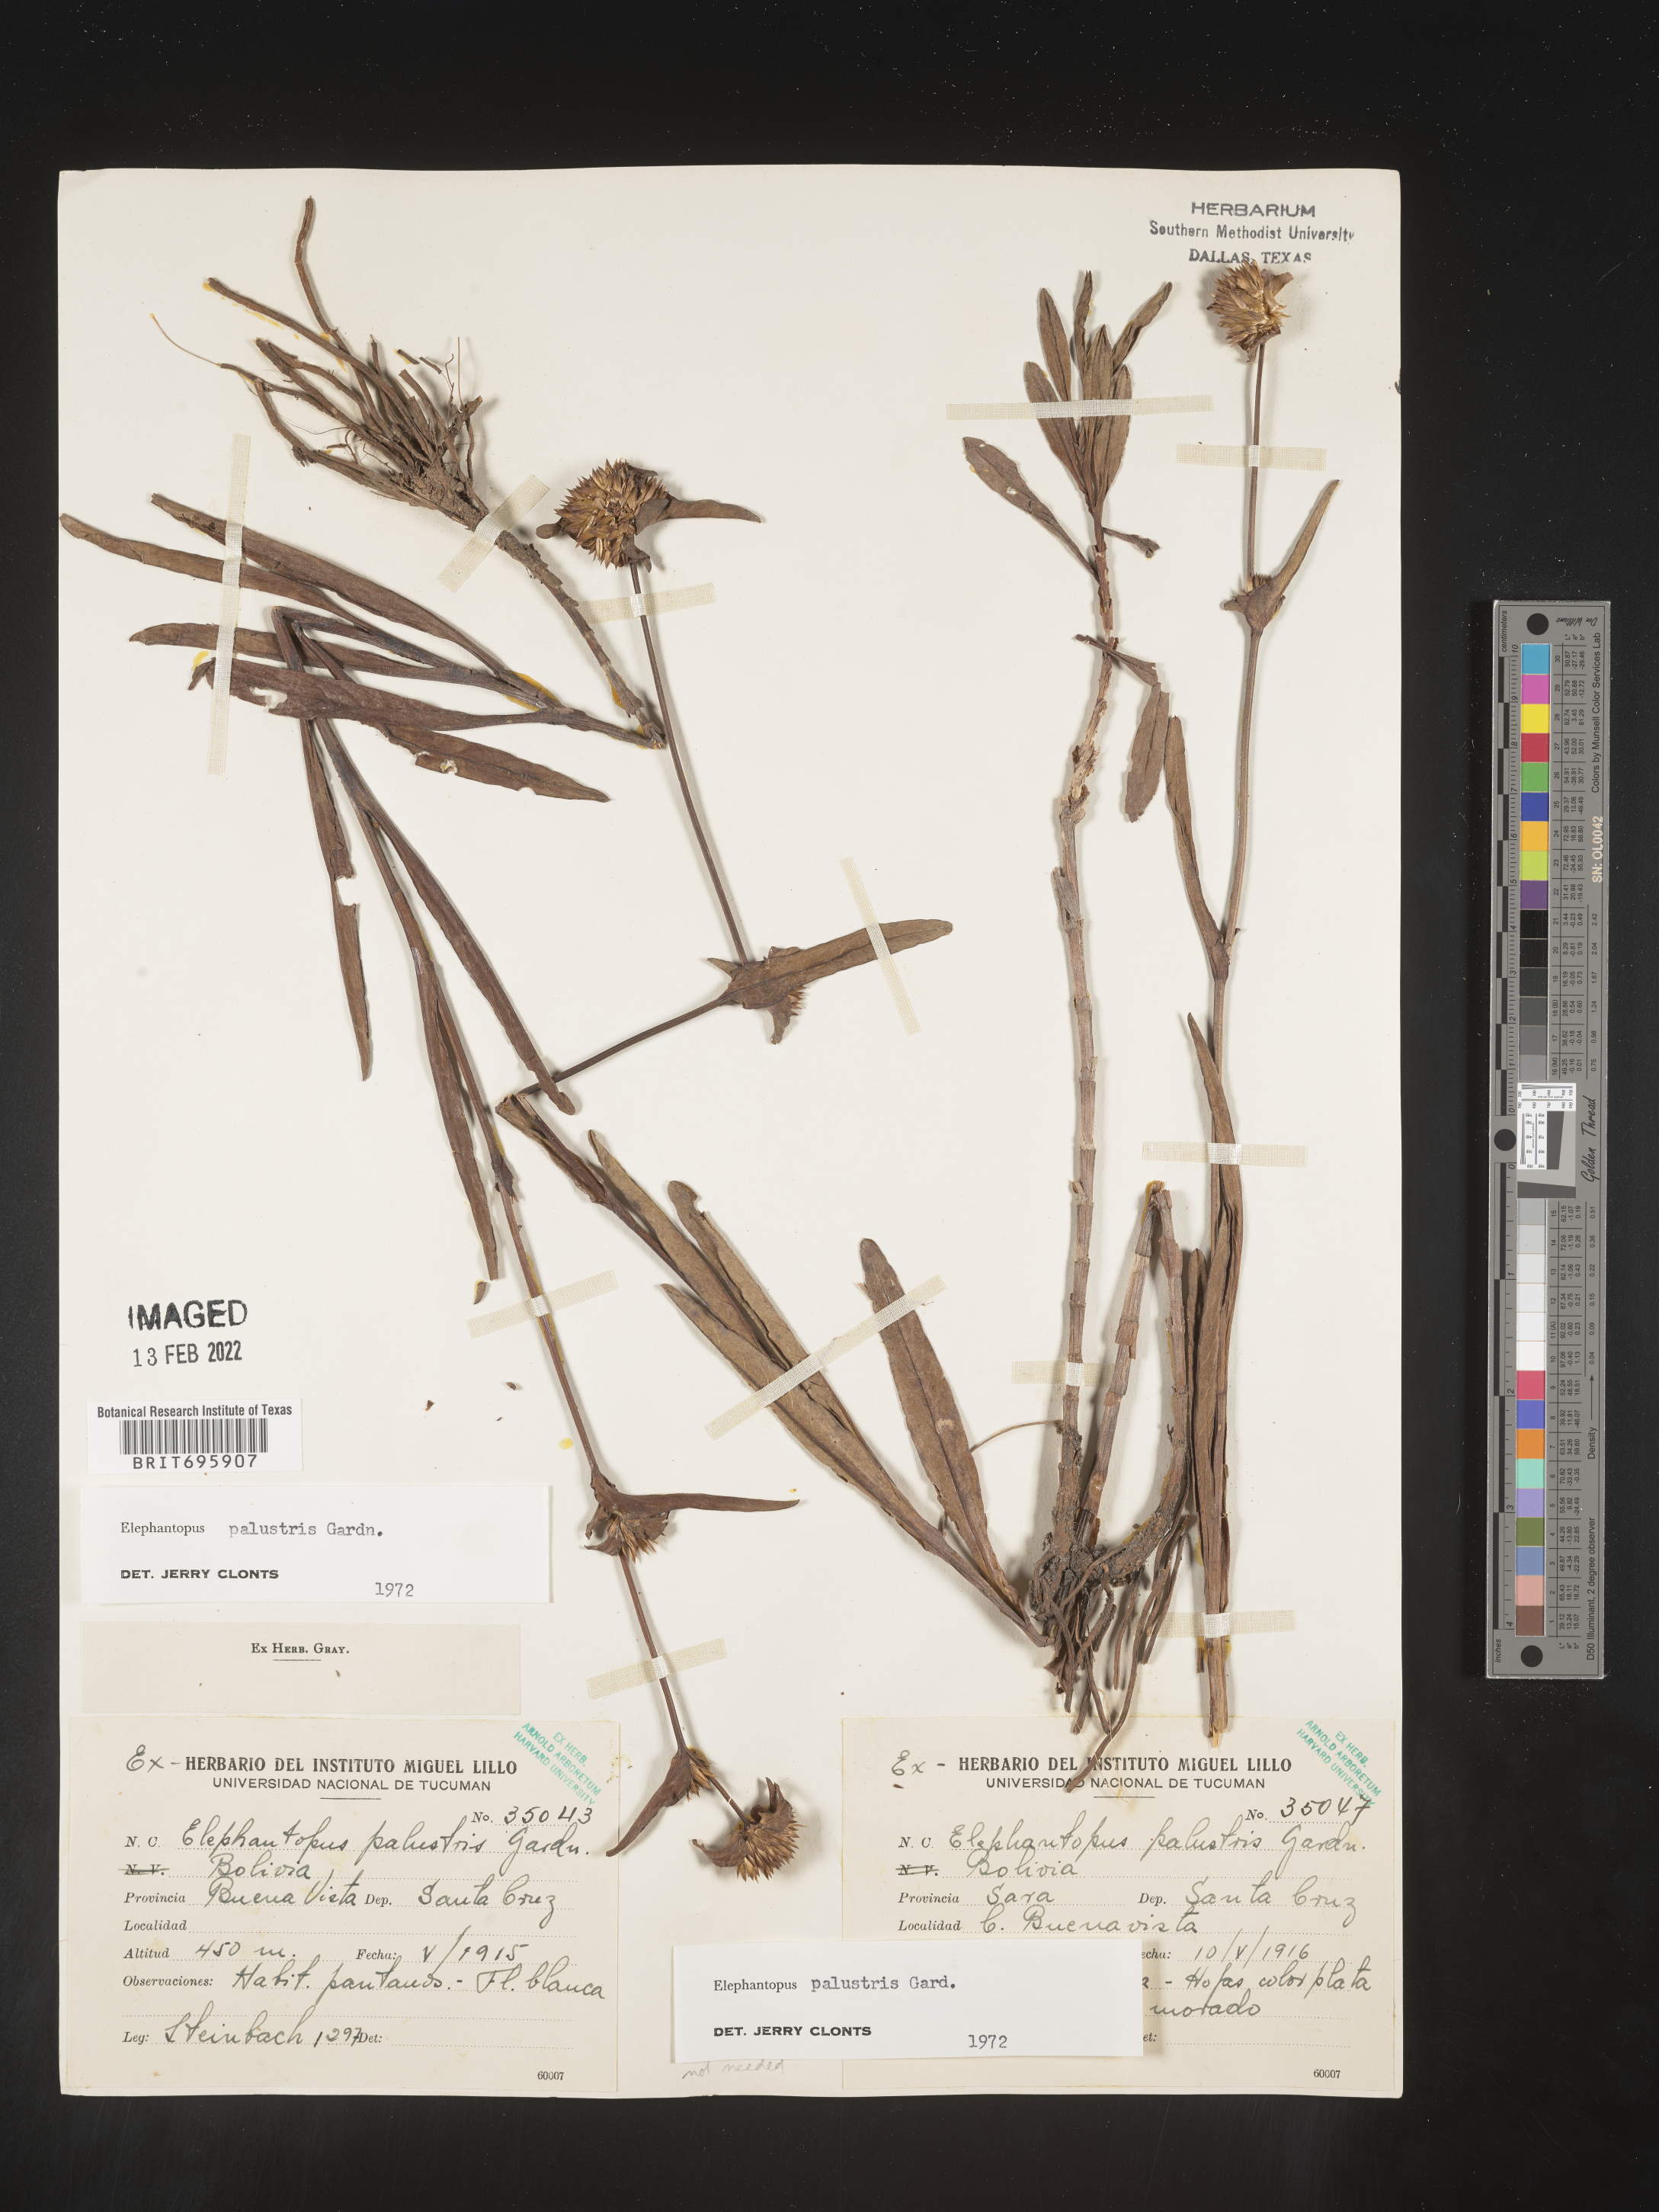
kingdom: Plantae
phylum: Tracheophyta
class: Magnoliopsida
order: Asterales
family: Asteraceae
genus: Elephantopus
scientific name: Elephantopus
